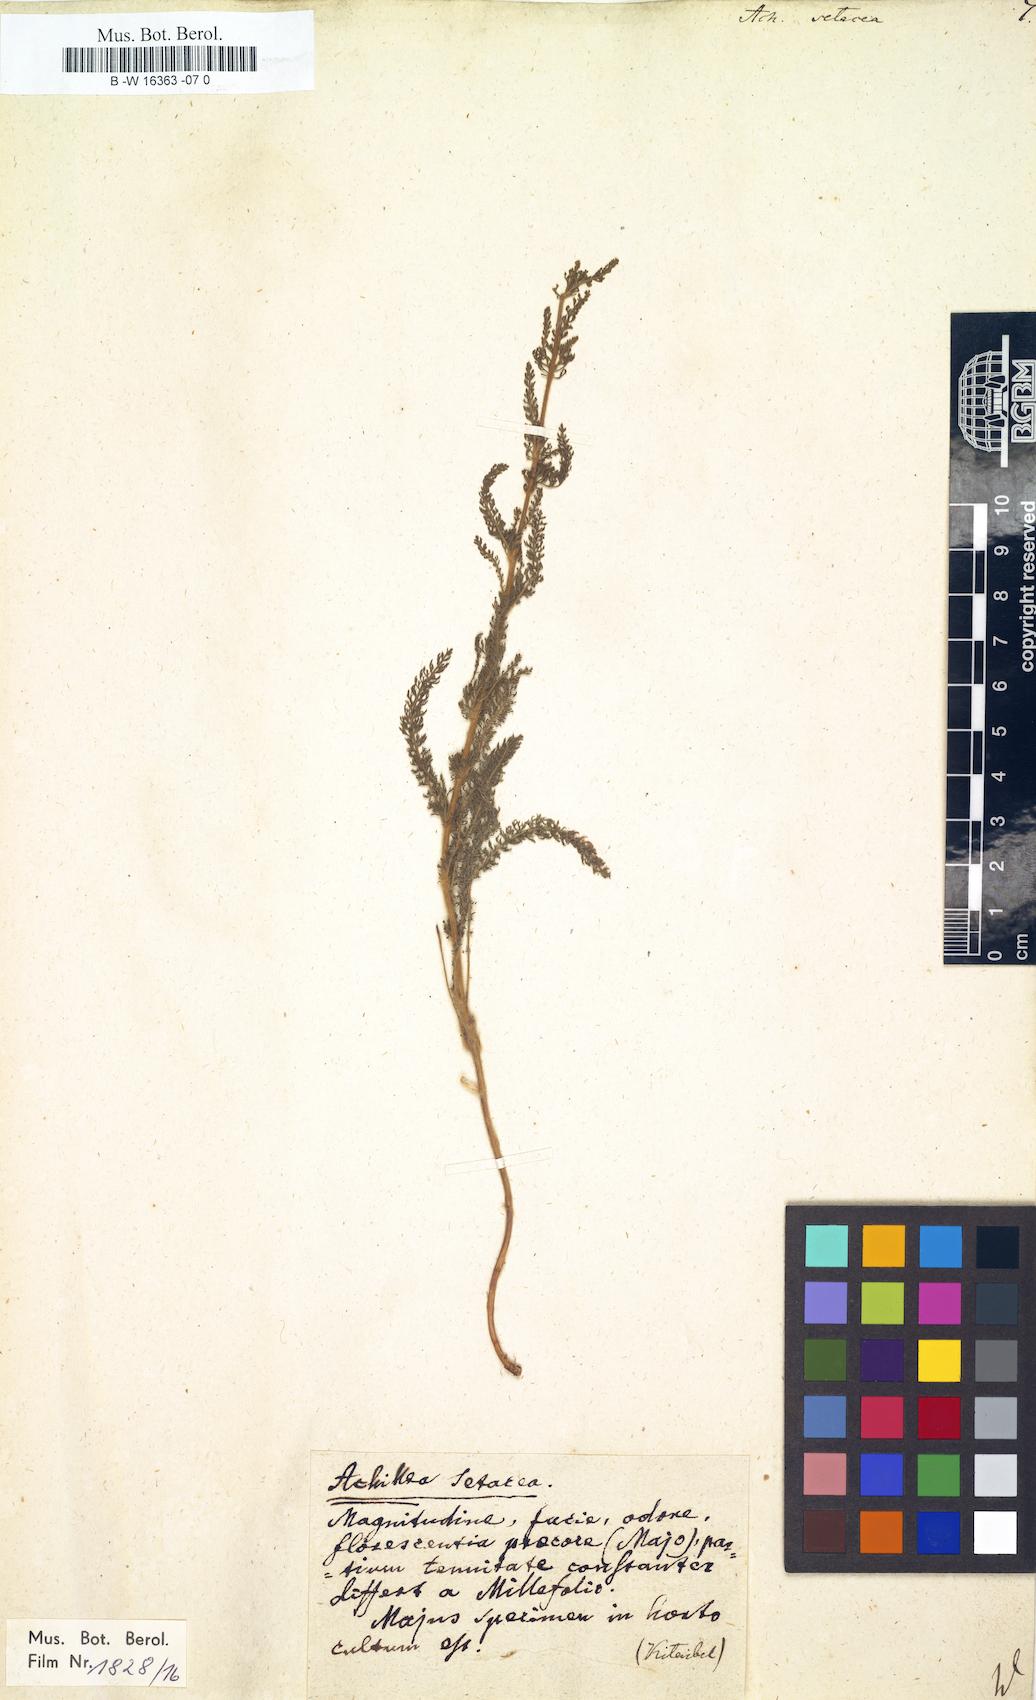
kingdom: Plantae
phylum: Tracheophyta
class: Magnoliopsida
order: Asterales
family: Asteraceae
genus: Achillea
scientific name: Achillea setacea
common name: Bristly yarrow
